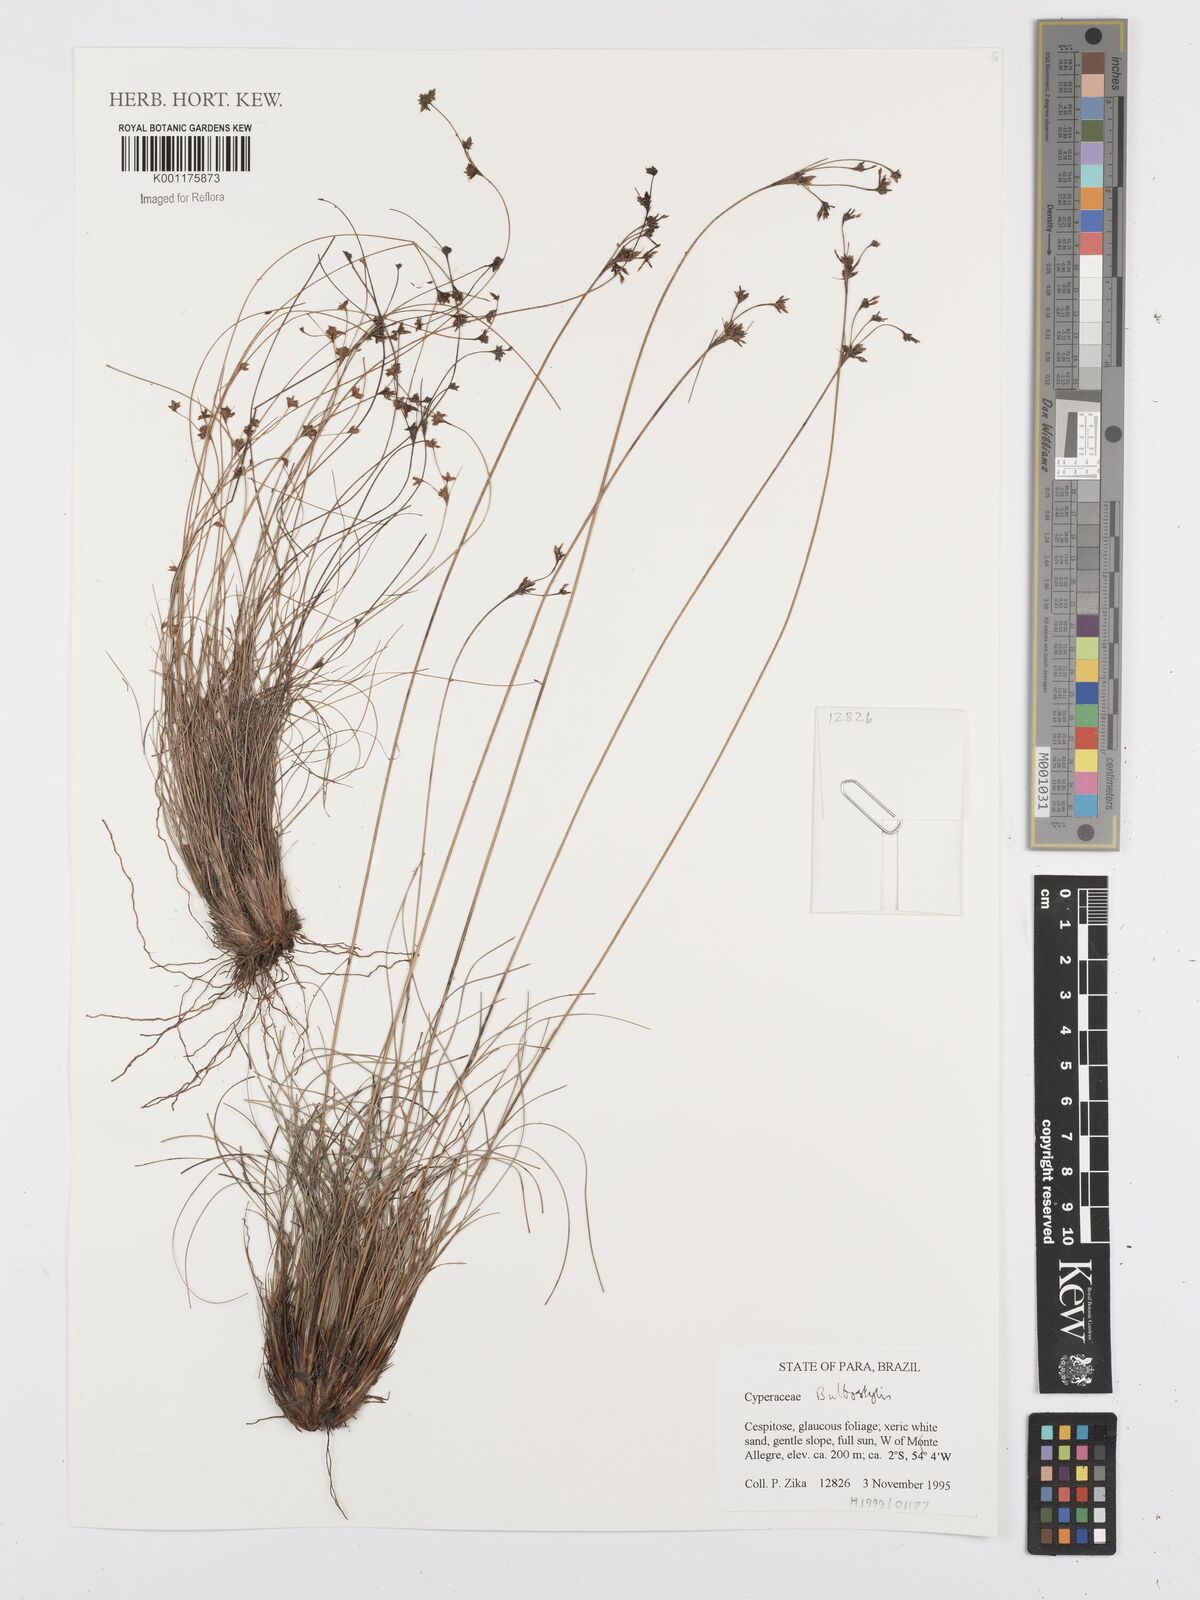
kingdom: Plantae
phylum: Tracheophyta
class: Liliopsida
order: Poales
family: Cyperaceae
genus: Bulbostylis
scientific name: Bulbostylis
